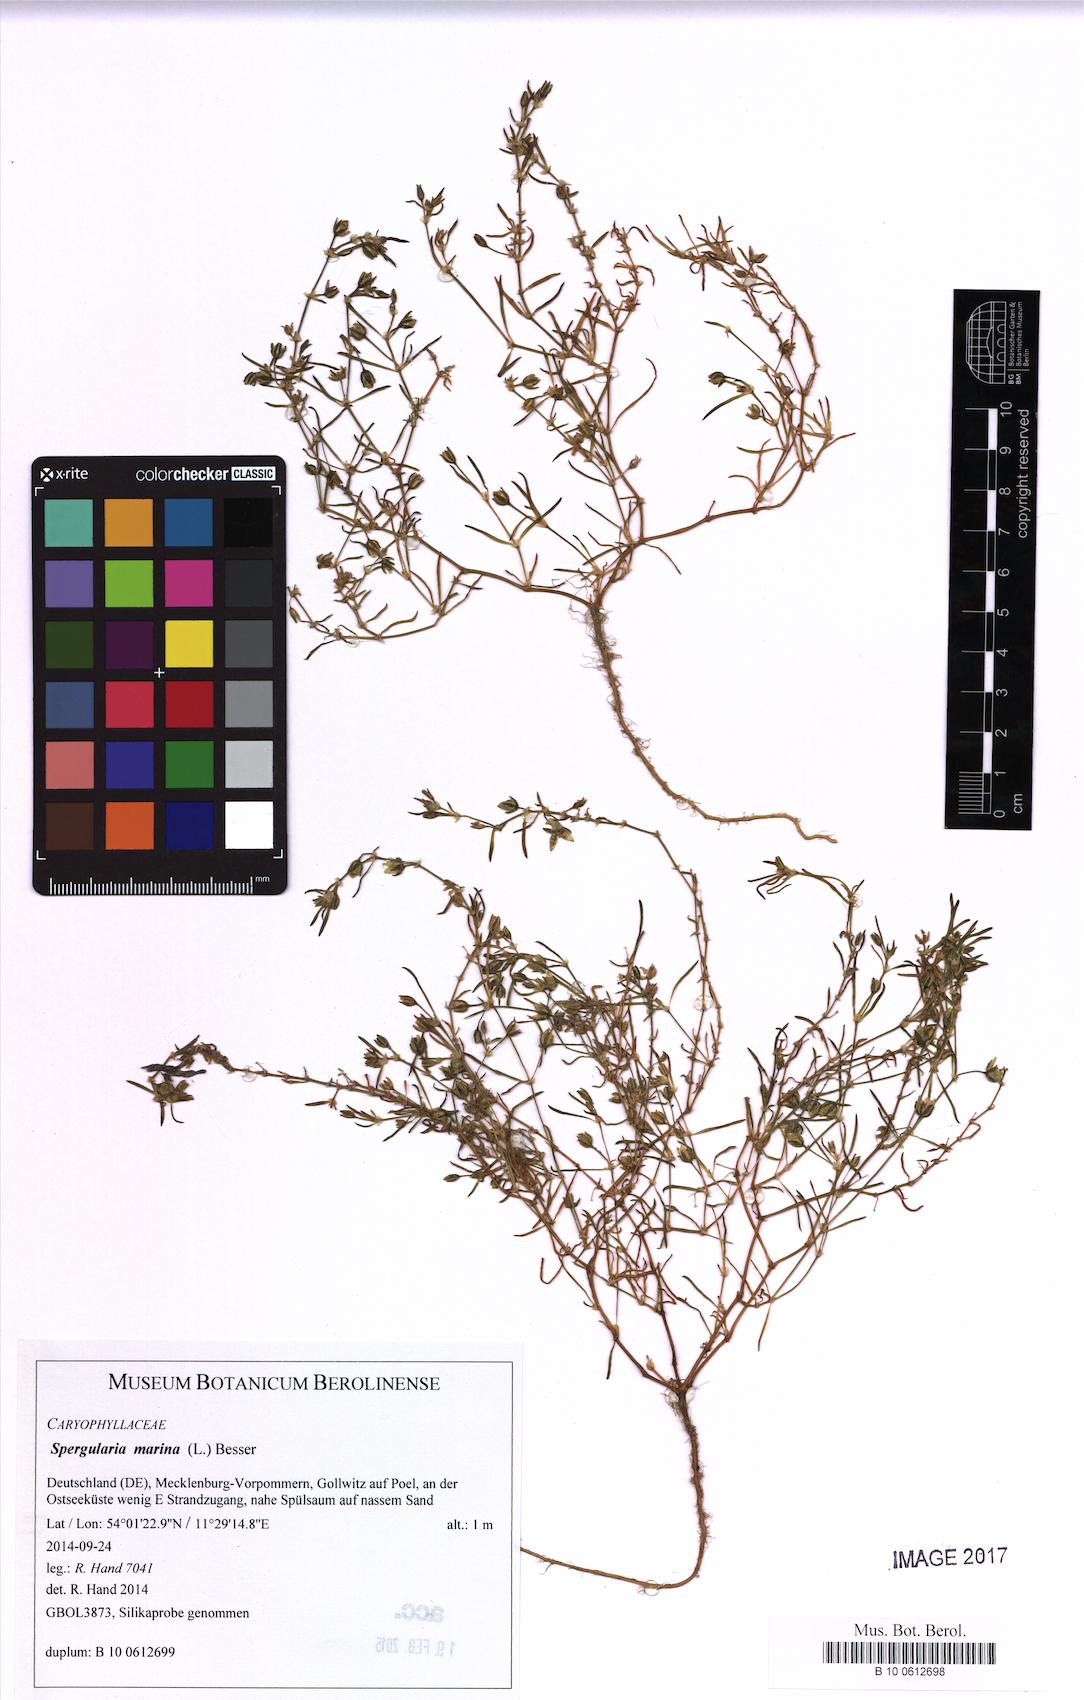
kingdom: Plantae
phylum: Tracheophyta
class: Magnoliopsida
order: Caryophyllales
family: Caryophyllaceae
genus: Spergularia
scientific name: Spergularia marina
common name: Lesser sea-spurrey
